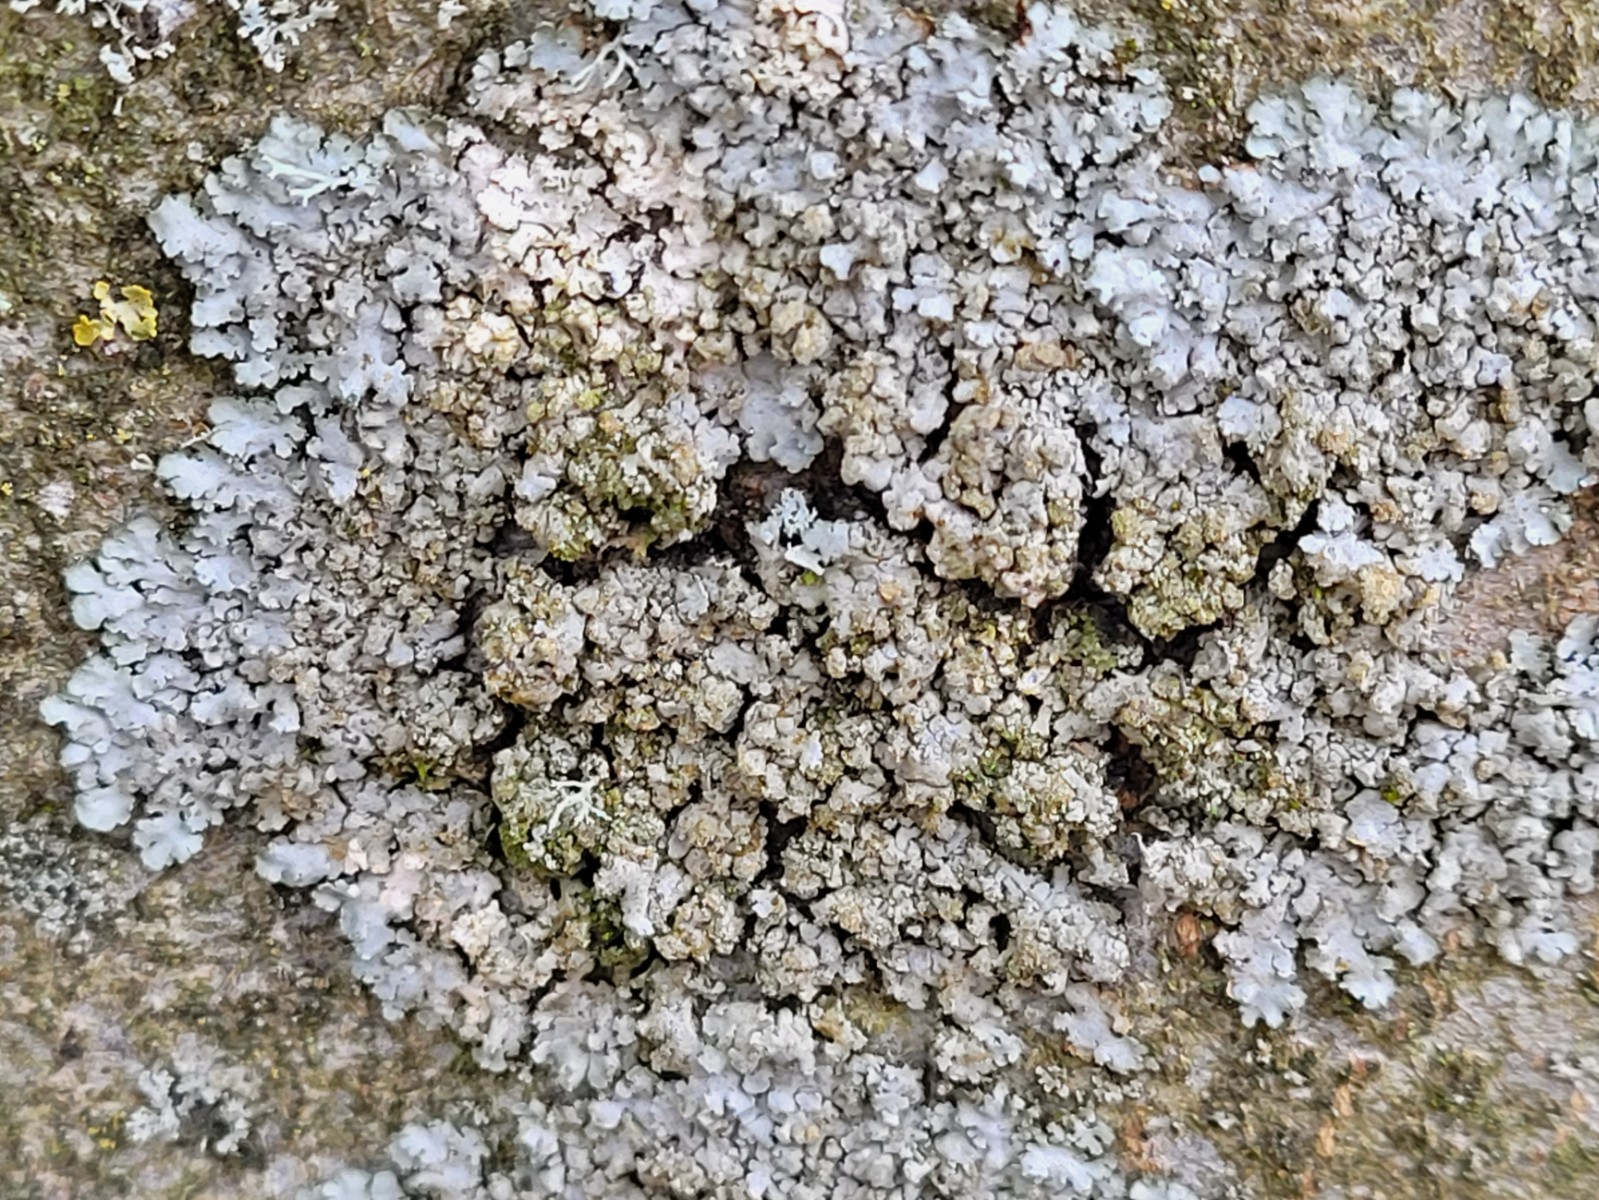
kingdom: Fungi
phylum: Ascomycota
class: Lecanoromycetes
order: Caliciales
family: Physciaceae
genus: Phaeophyscia
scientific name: Phaeophyscia orbicularis
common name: grågrøn rosetlav
